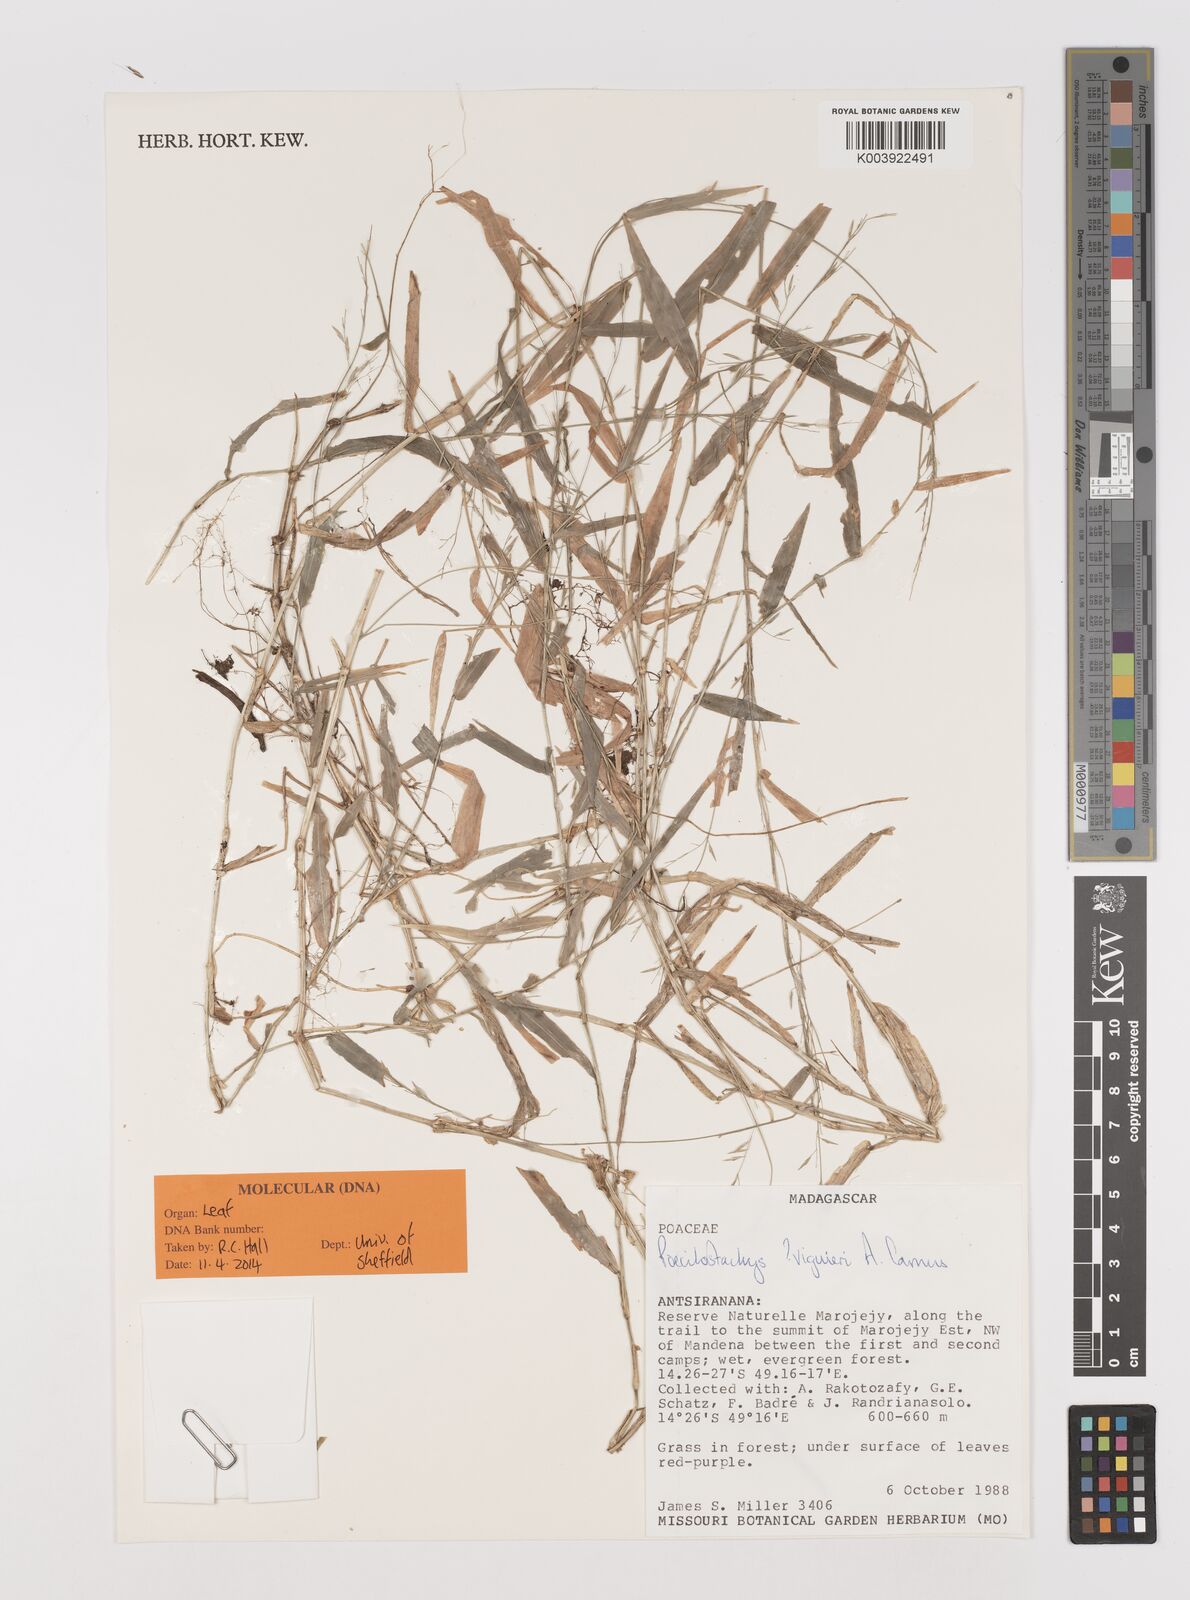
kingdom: Plantae
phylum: Tracheophyta
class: Liliopsida
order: Poales
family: Poaceae
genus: Poecilostachys
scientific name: Poecilostachys viguieri
